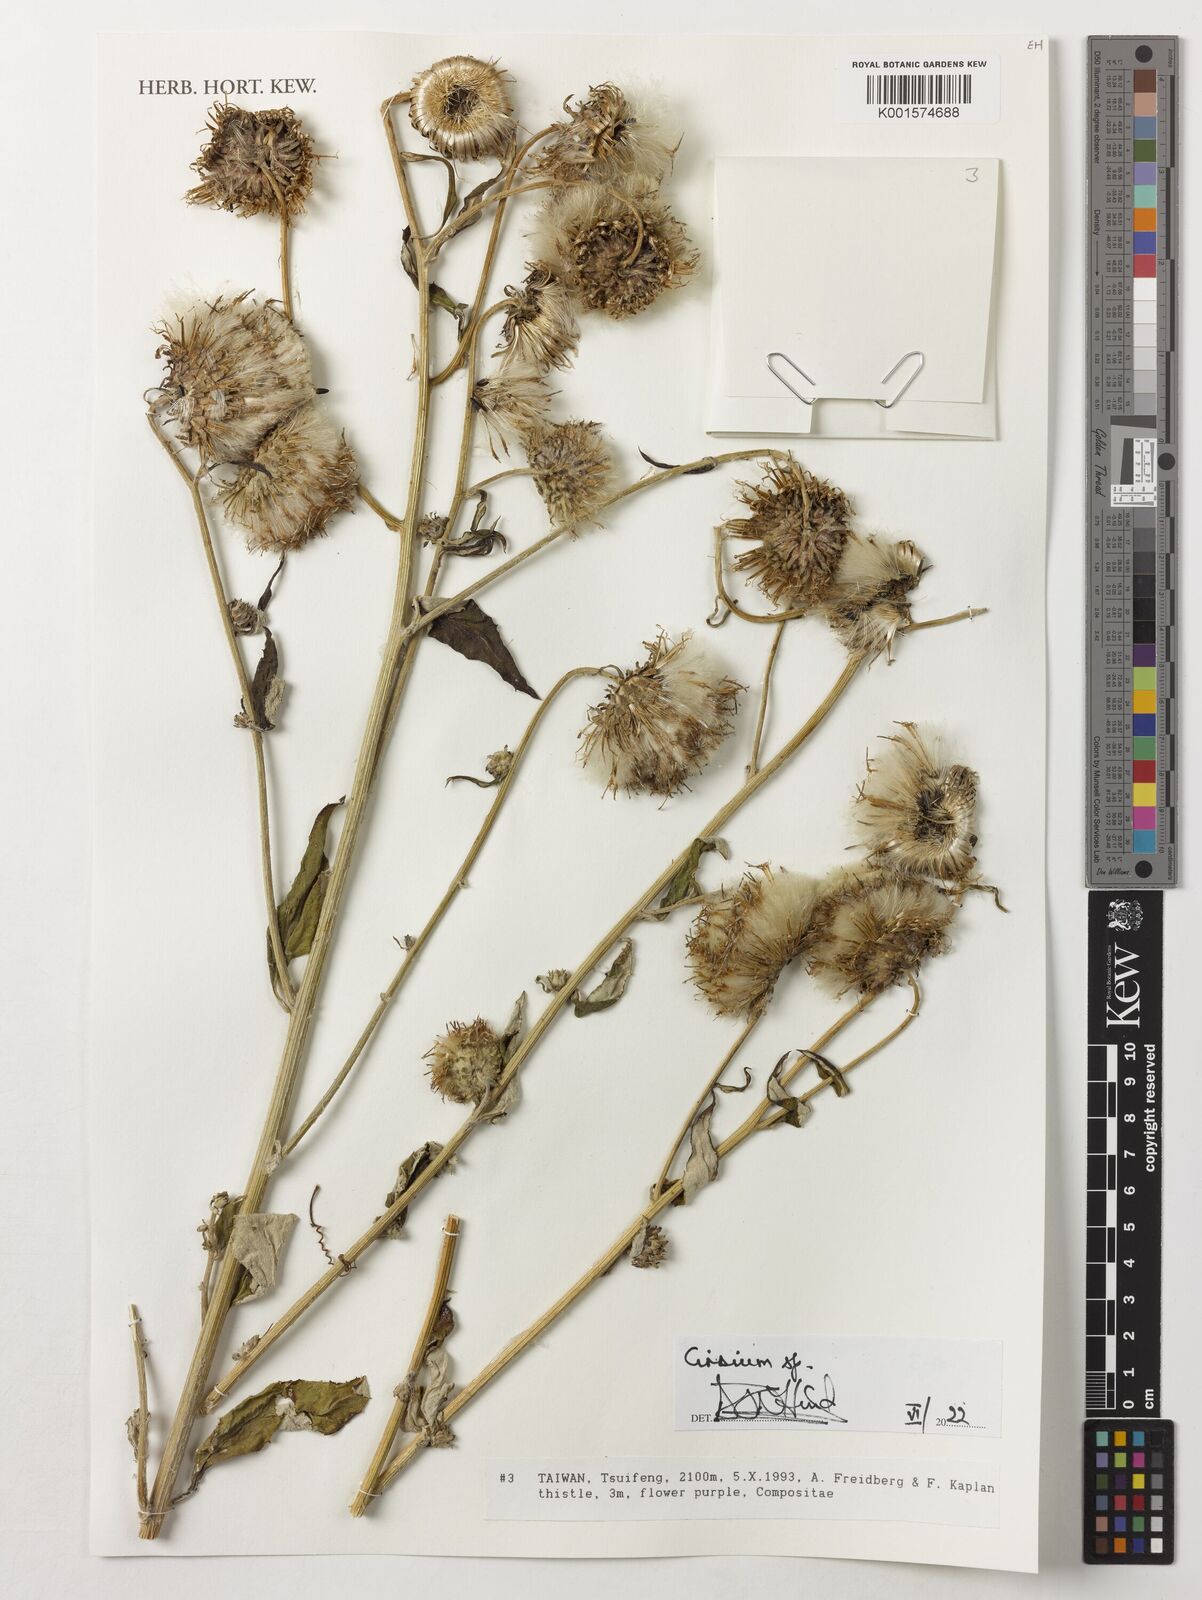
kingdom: Plantae
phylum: Tracheophyta
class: Magnoliopsida
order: Asterales
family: Asteraceae
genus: Cirsium
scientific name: Cirsium
